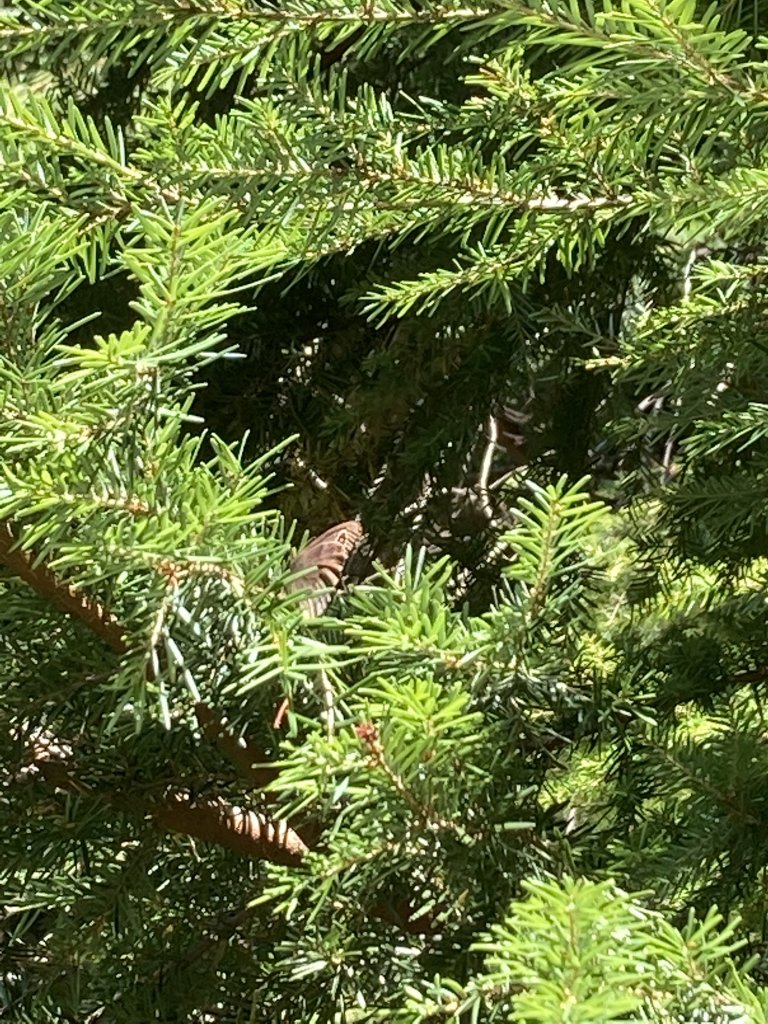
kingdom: Animalia
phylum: Arthropoda
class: Insecta
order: Lepidoptera
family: Nymphalidae
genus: Cercyonis
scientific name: Cercyonis pegala
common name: Common Wood-Nymph
